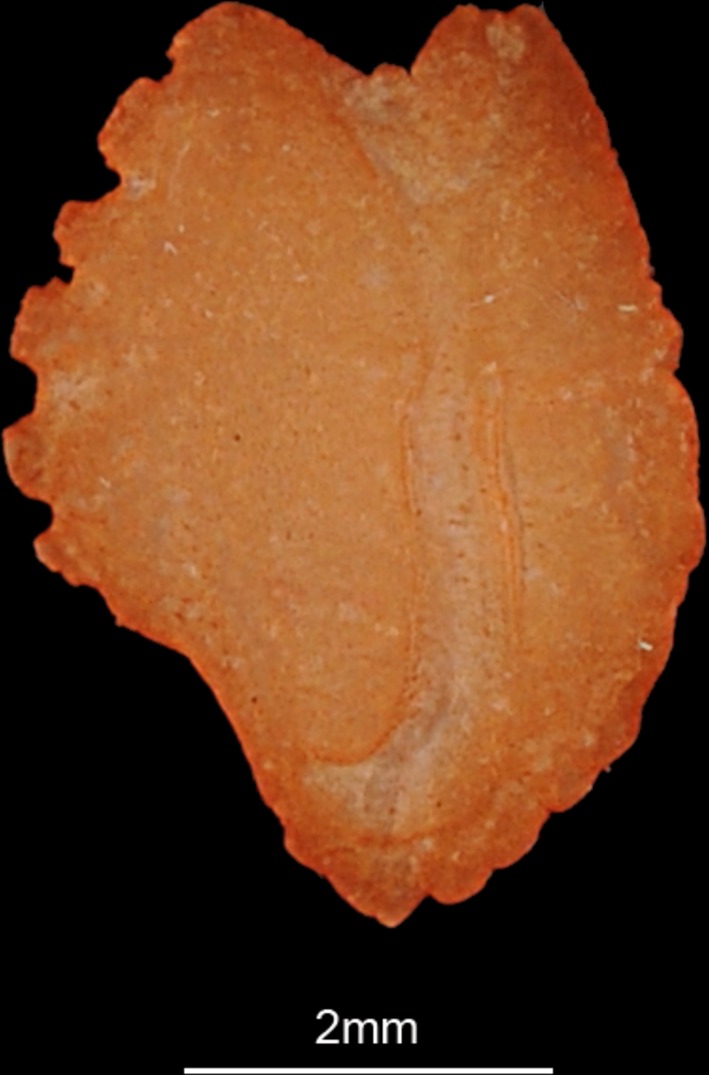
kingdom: Animalia
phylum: Chordata
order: Perciformes
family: Gerreidae
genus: Eucinostomus
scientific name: Eucinostomus melanopterus
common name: Flagfin mojarra
